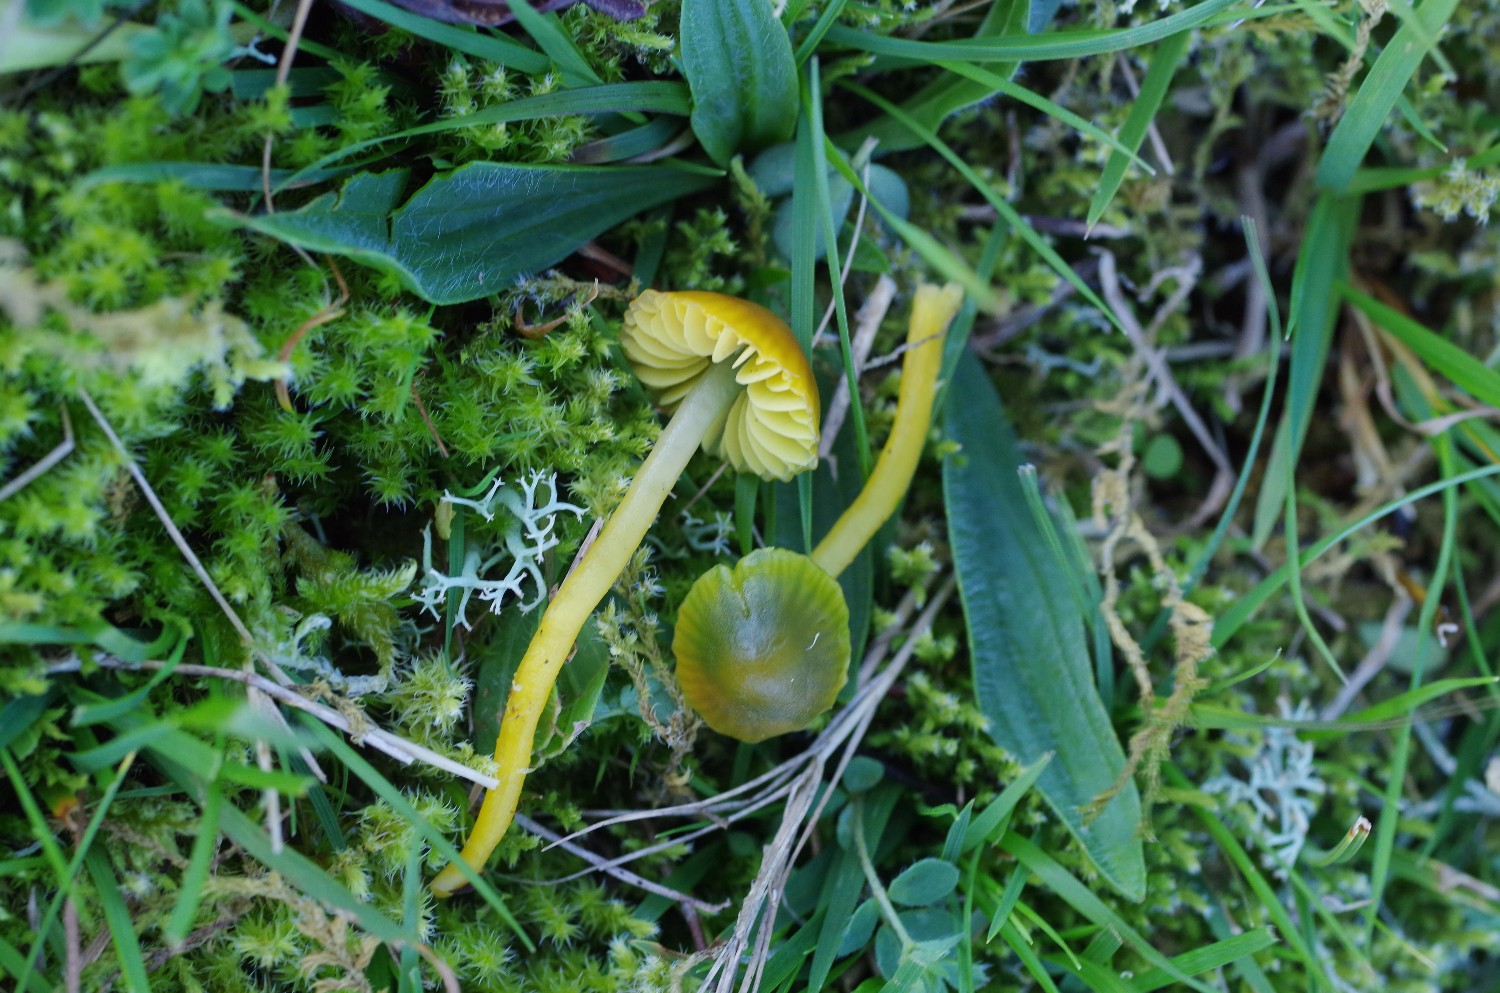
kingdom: Fungi
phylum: Basidiomycota
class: Agaricomycetes
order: Agaricales
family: Hygrophoraceae
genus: Gliophorus
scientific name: Gliophorus psittacinus
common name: papegøje-vokshat
